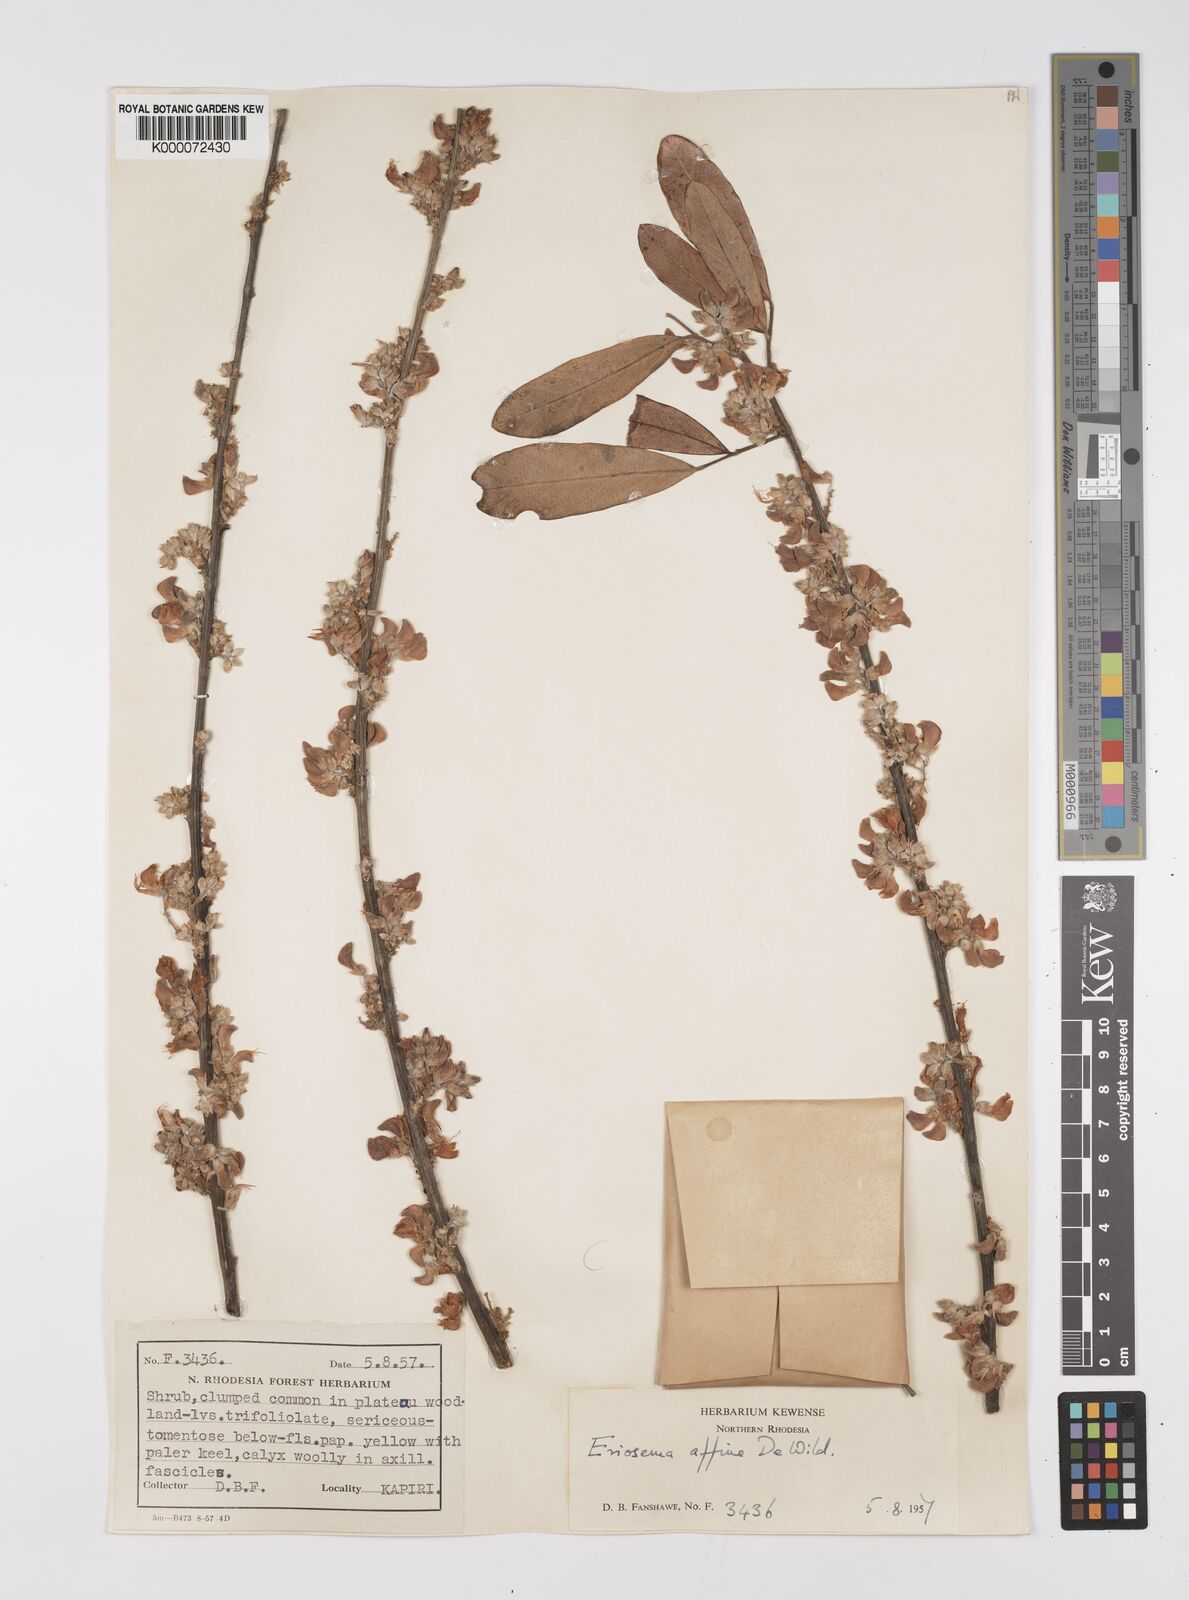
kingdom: Plantae
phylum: Tracheophyta
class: Magnoliopsida
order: Fabales
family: Fabaceae
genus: Eriosema
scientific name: Eriosema affine
